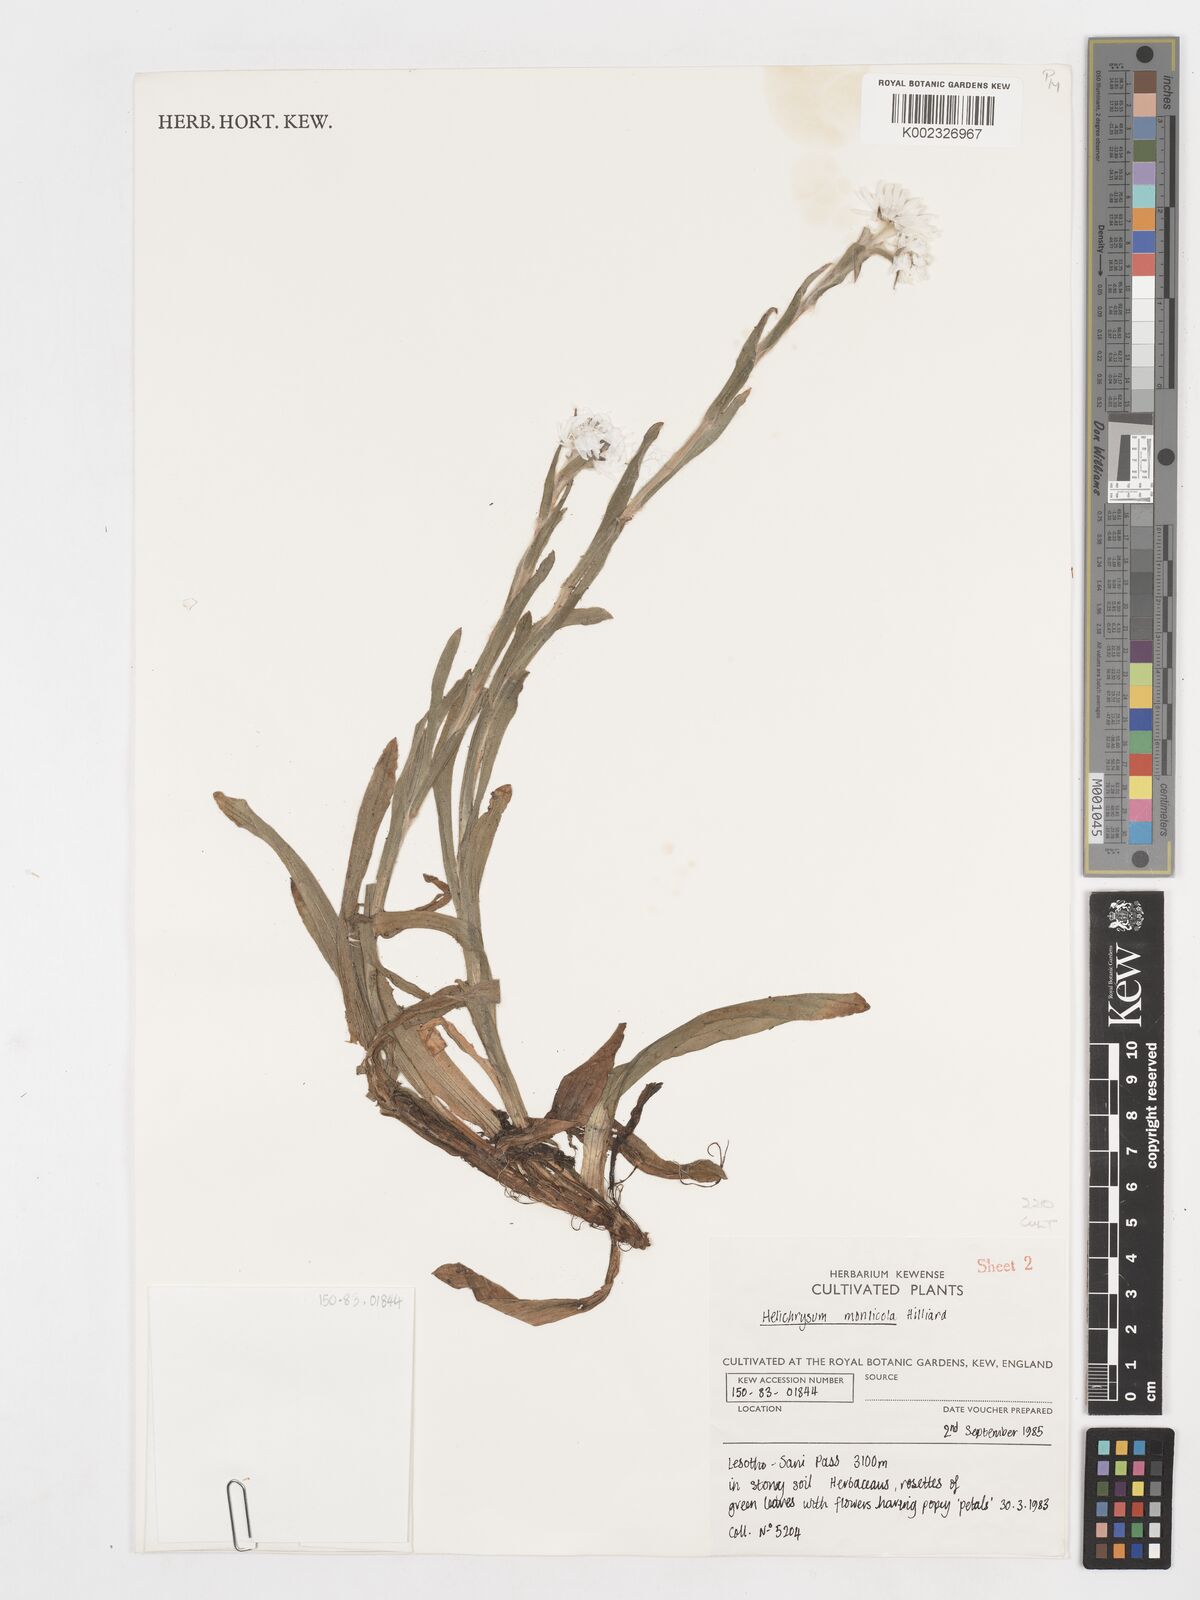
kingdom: Plantae
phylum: Tracheophyta
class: Magnoliopsida
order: Asterales
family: Asteraceae
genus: Helichrysum
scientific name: Helichrysum monticola
